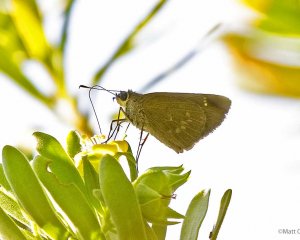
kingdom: Animalia
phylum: Arthropoda
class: Insecta
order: Lepidoptera
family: Hesperiidae
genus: Cymaenes
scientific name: Cymaenes tripunctus
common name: Three-spotted Skipper
